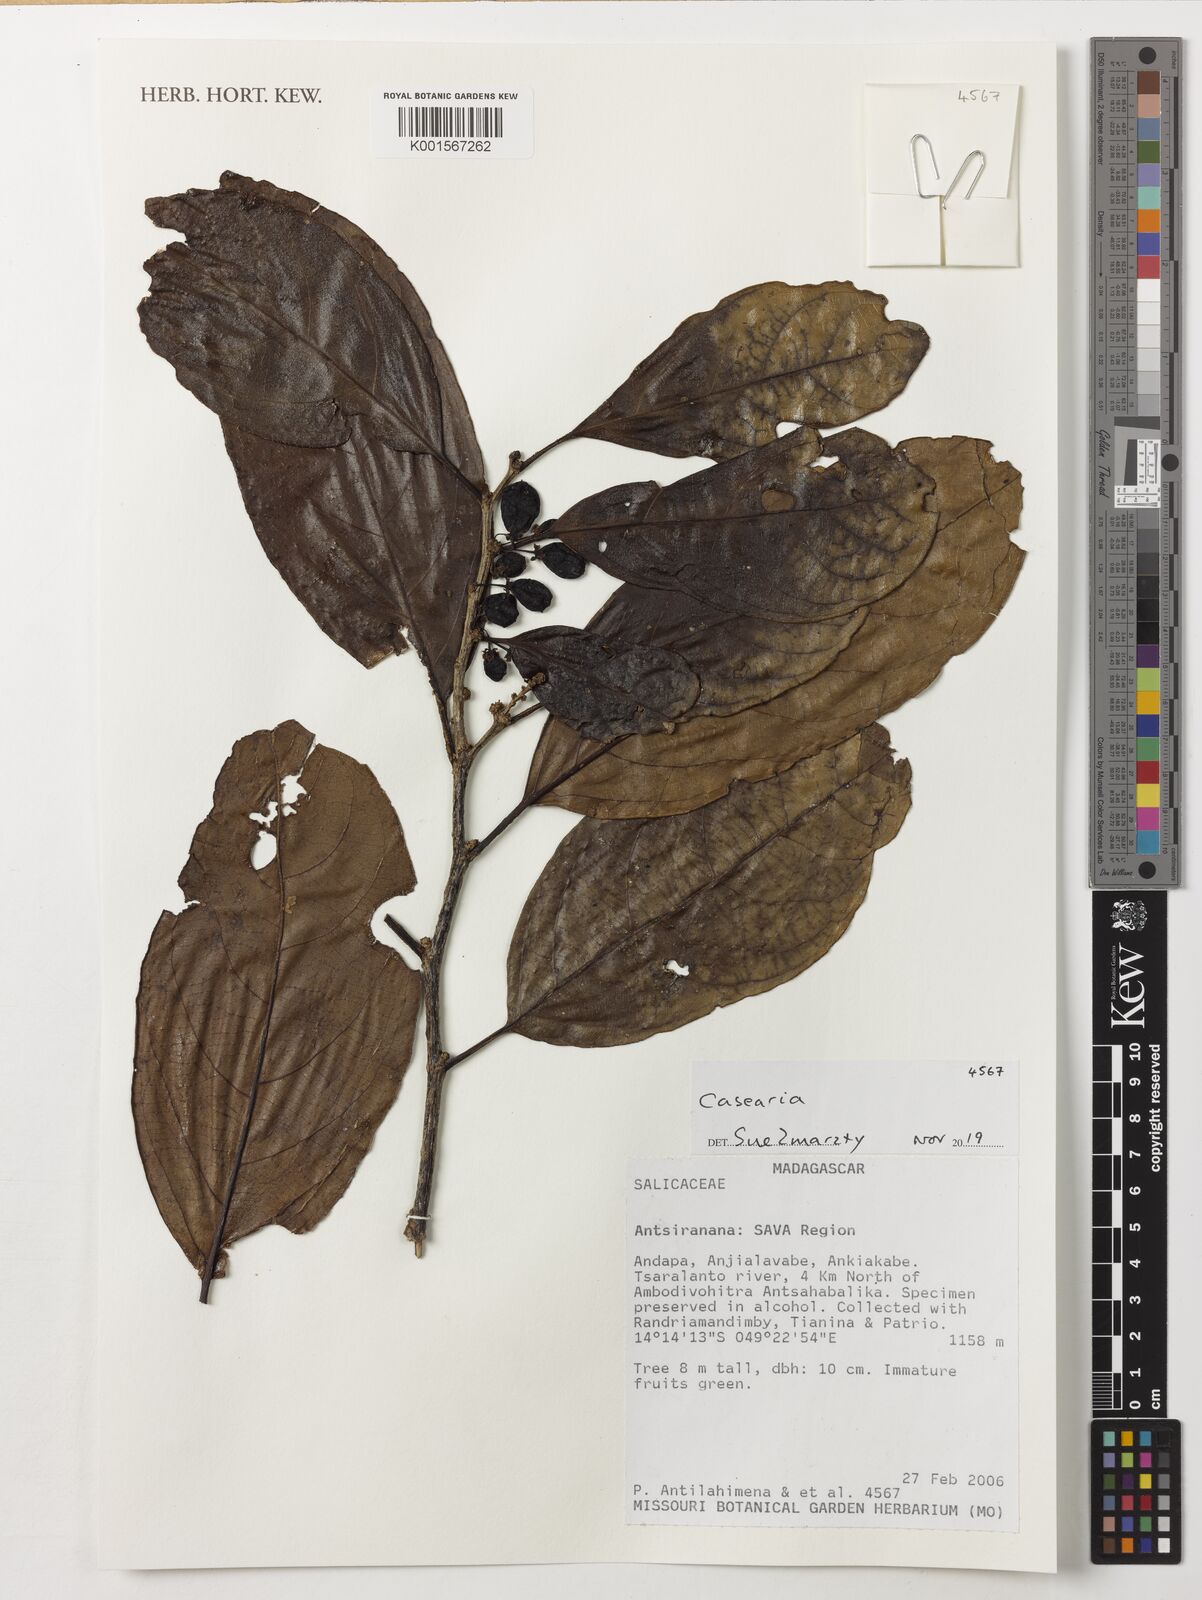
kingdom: Plantae
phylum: Tracheophyta
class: Magnoliopsida
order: Malpighiales
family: Salicaceae
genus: Casearia
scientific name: Casearia
